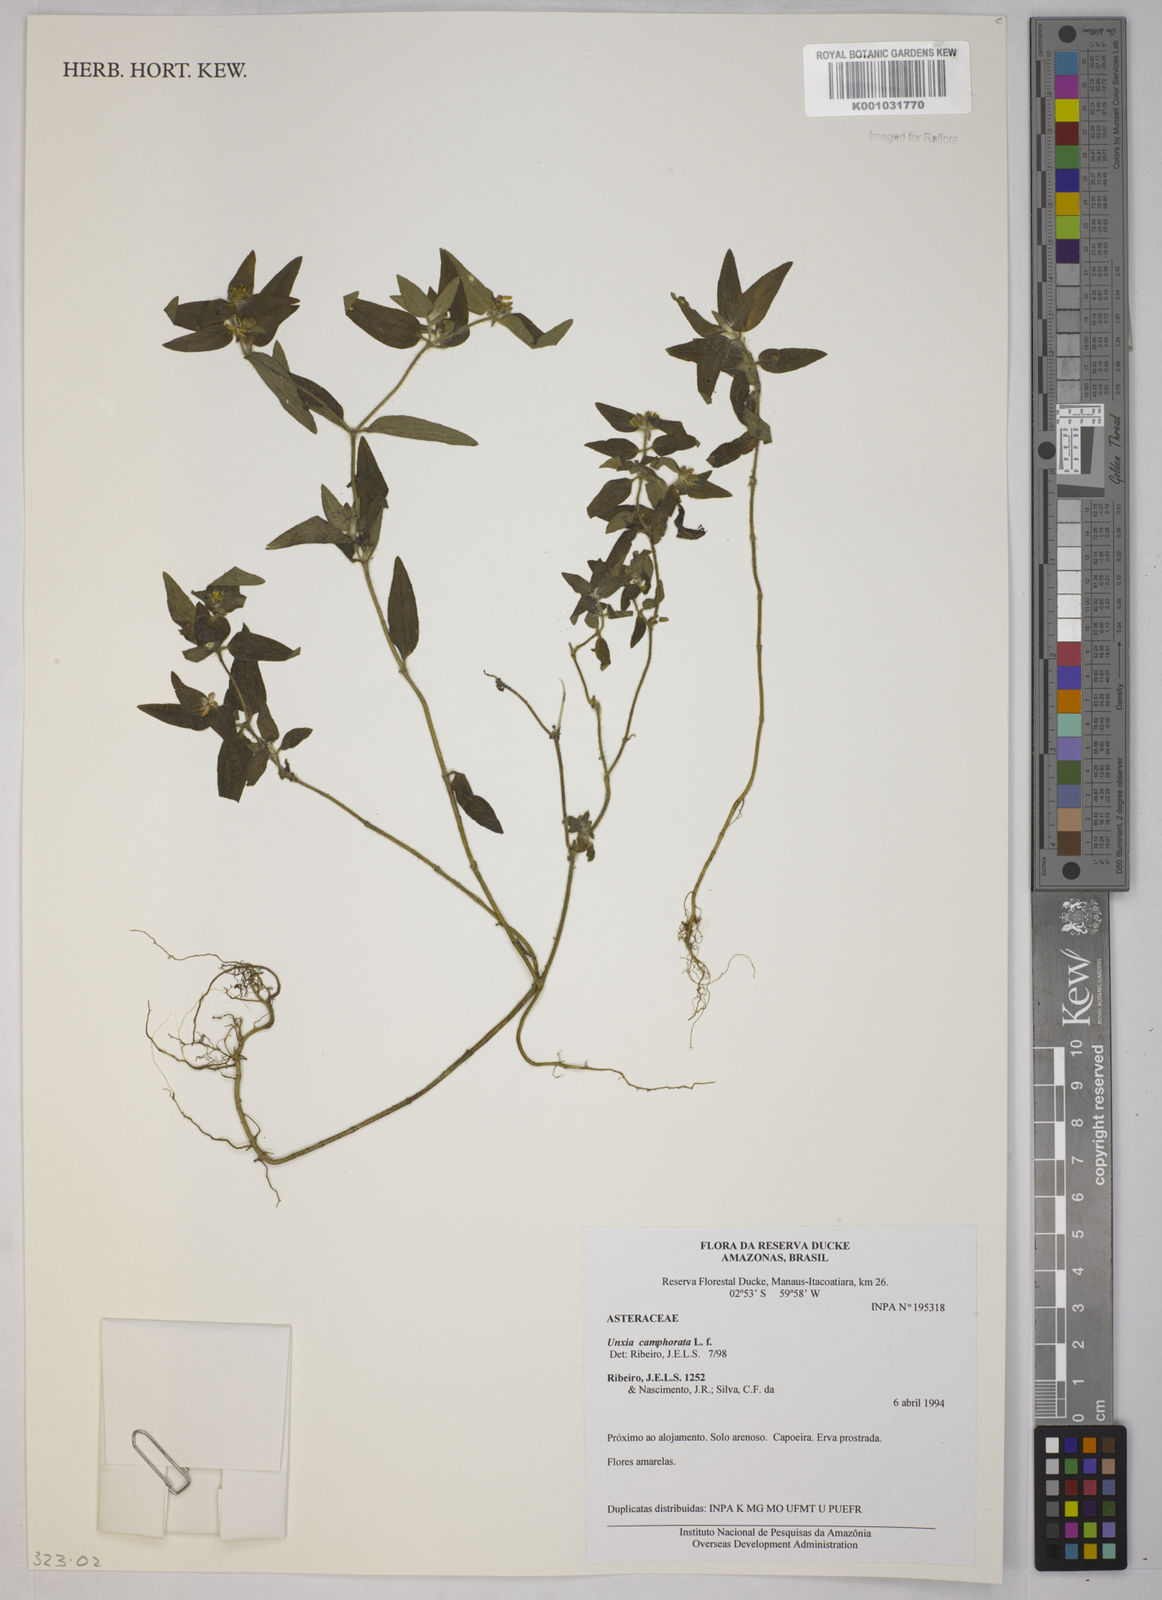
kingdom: Plantae
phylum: Tracheophyta
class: Magnoliopsida
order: Asterales
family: Asteraceae
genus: Unxia
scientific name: Unxia camphorata
